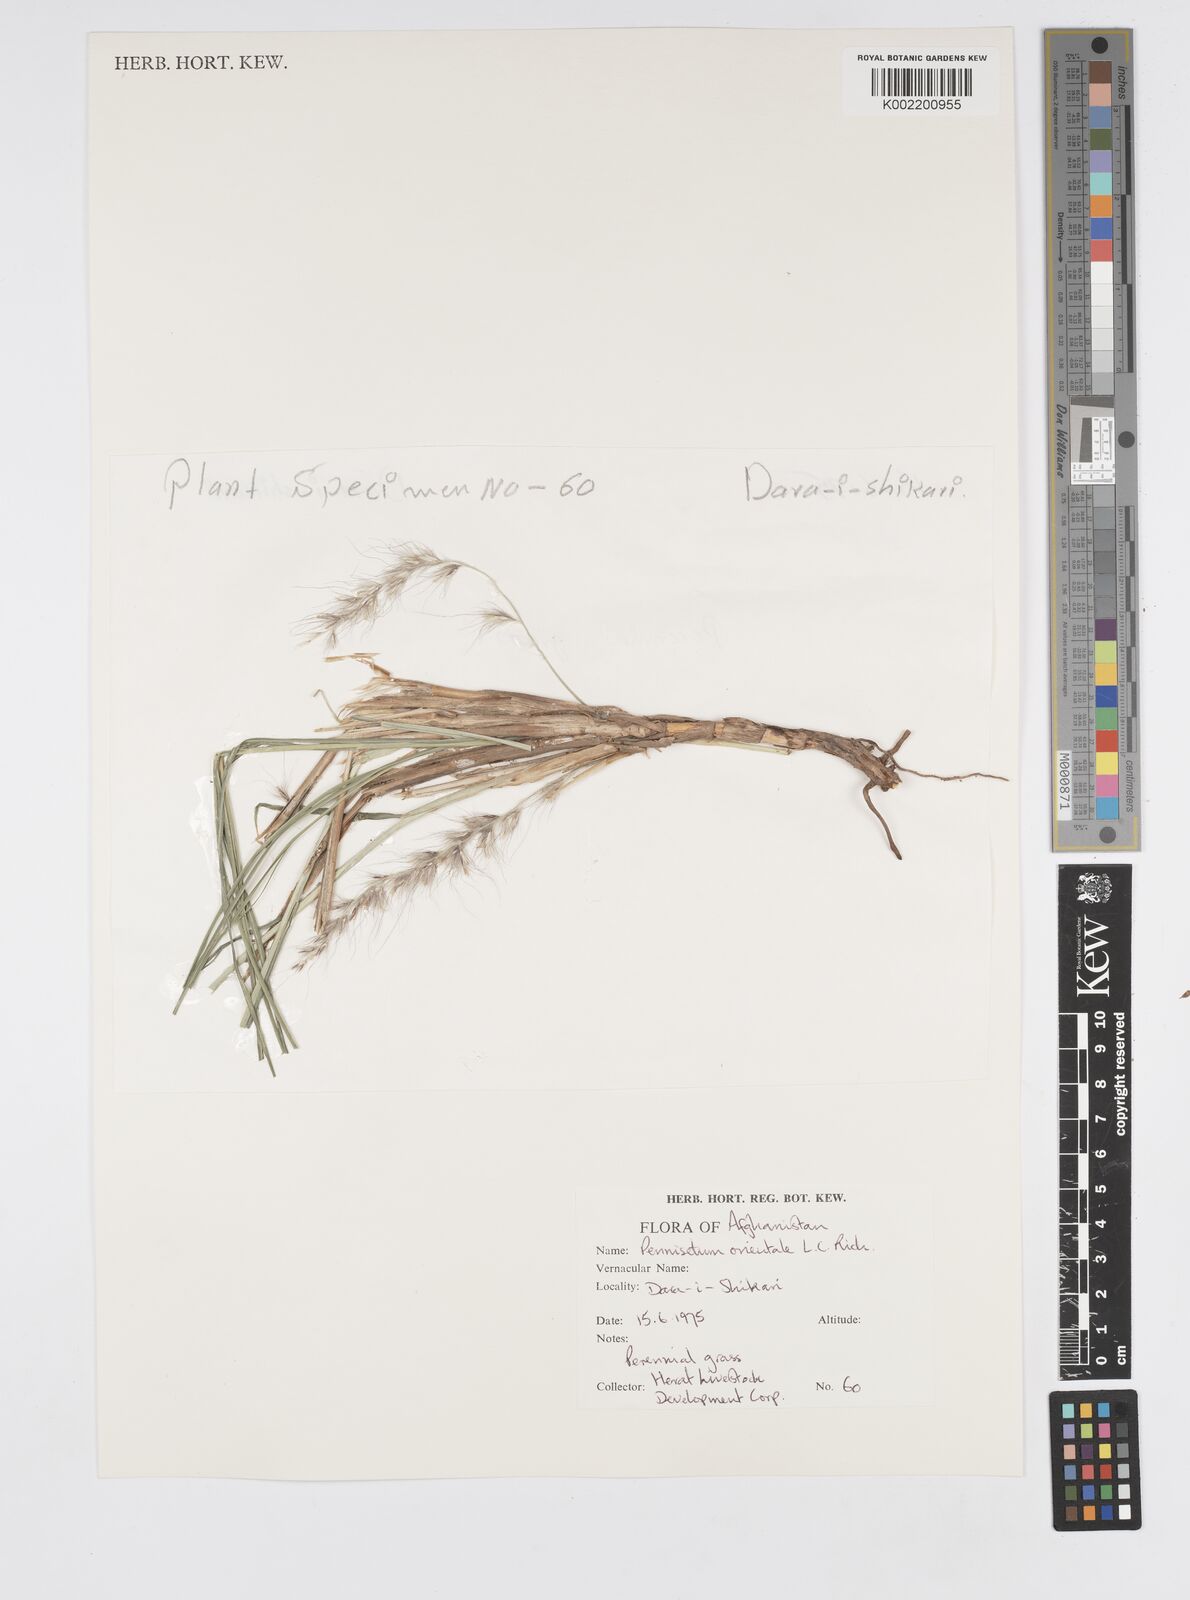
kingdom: Plantae
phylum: Tracheophyta
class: Liliopsida
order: Poales
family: Poaceae
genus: Cenchrus
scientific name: Cenchrus orientalis
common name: Oriental fountain grass
